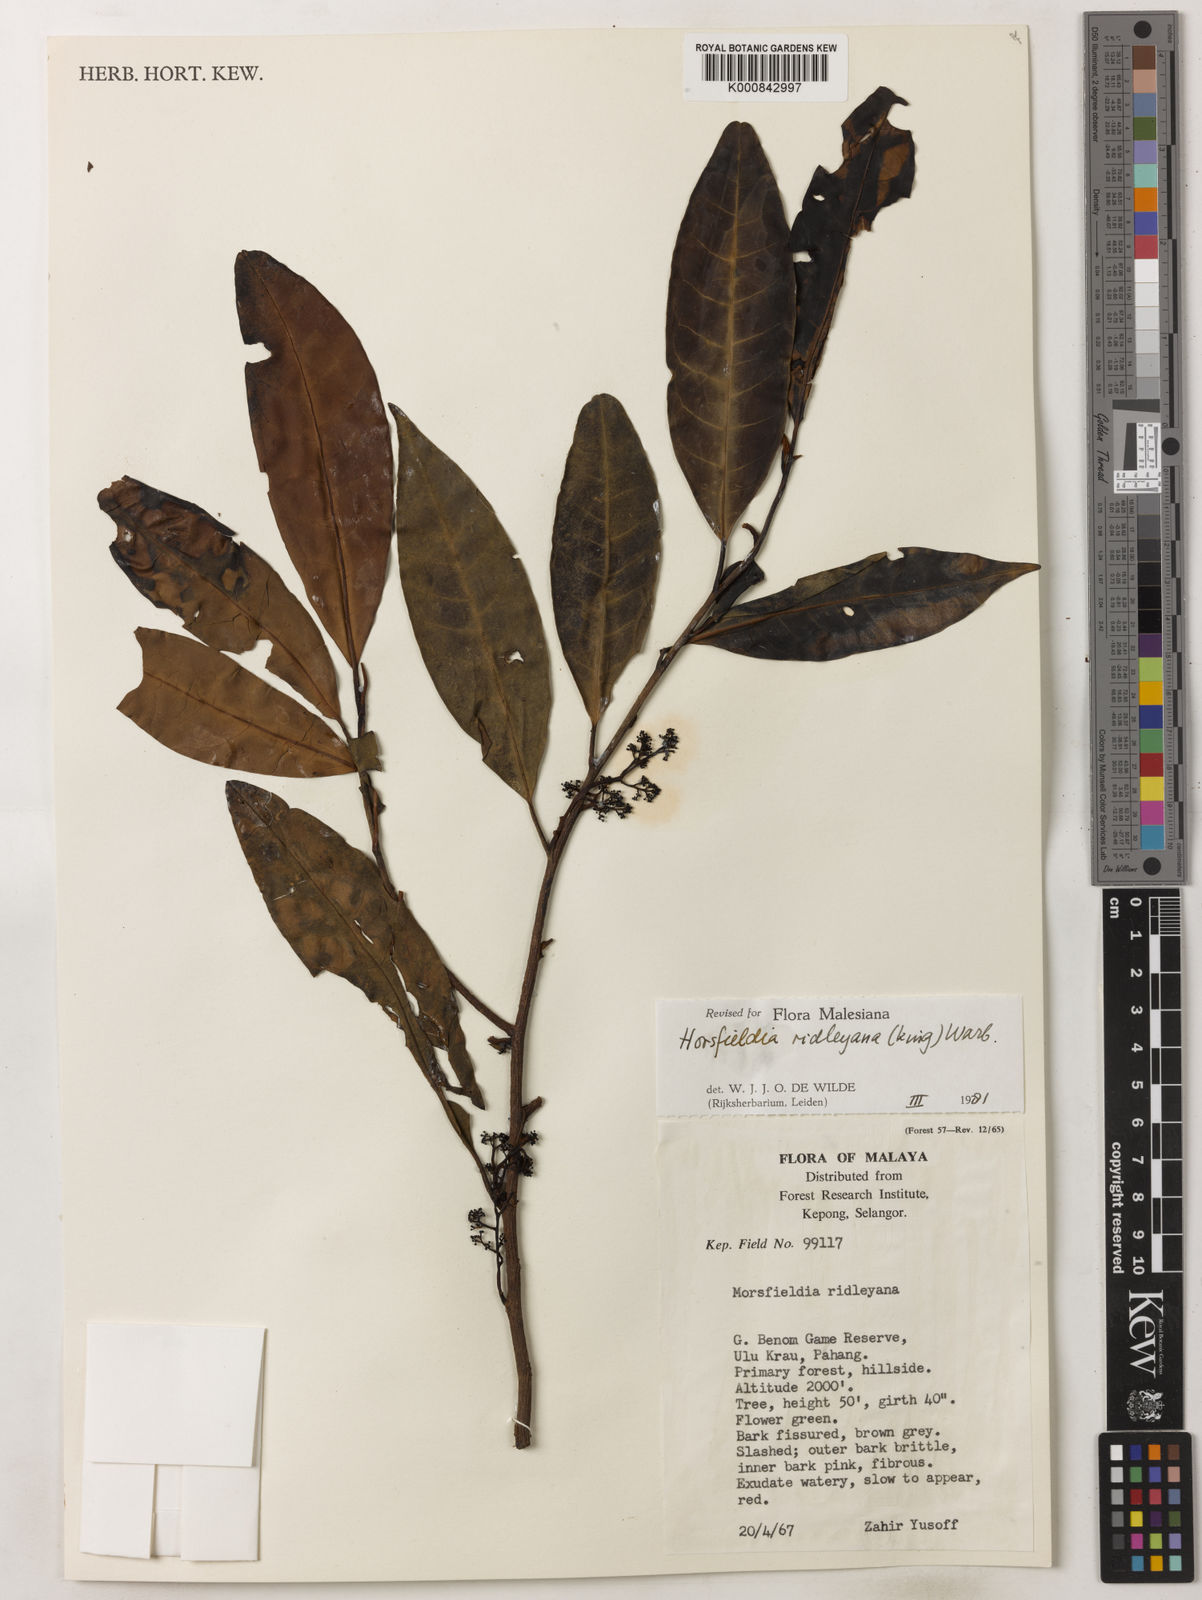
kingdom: Plantae
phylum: Tracheophyta
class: Magnoliopsida
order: Magnoliales
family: Myristicaceae
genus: Horsfieldia
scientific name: Horsfieldia ridleyana
